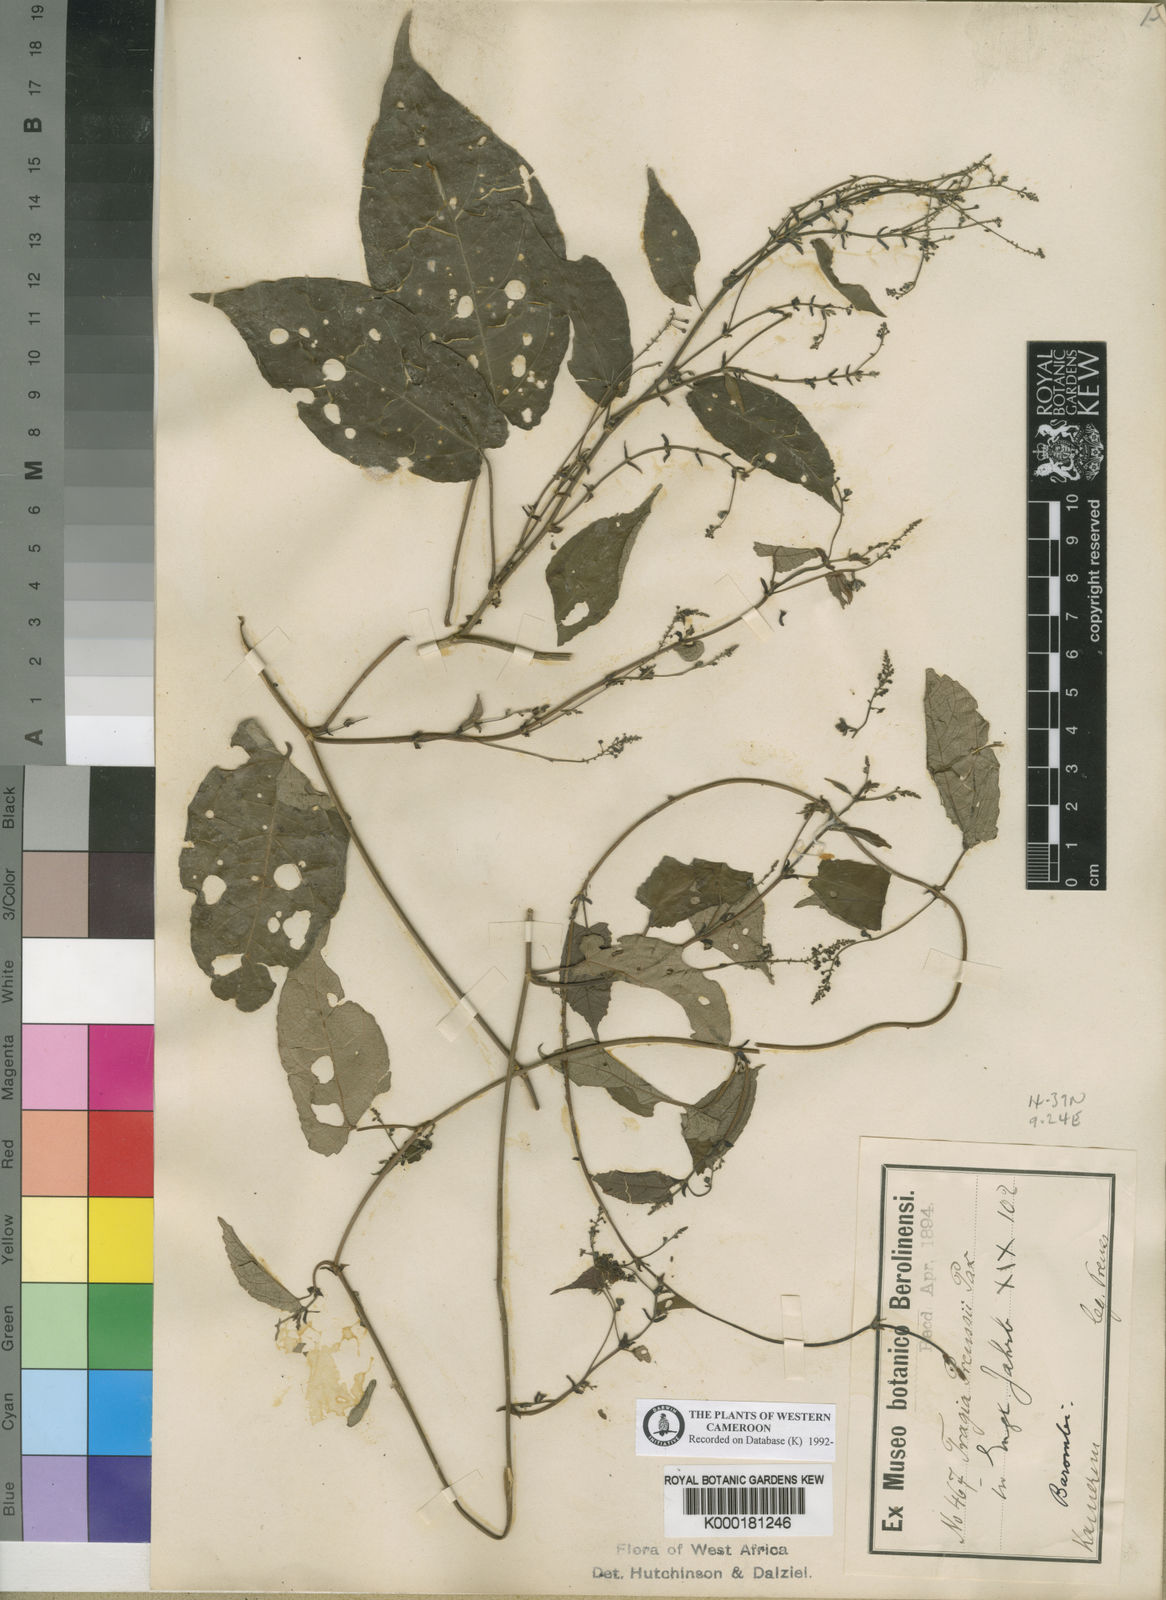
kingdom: Plantae
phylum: Tracheophyta
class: Magnoliopsida
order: Malpighiales
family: Euphorbiaceae
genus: Tragia
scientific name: Tragia preussii
